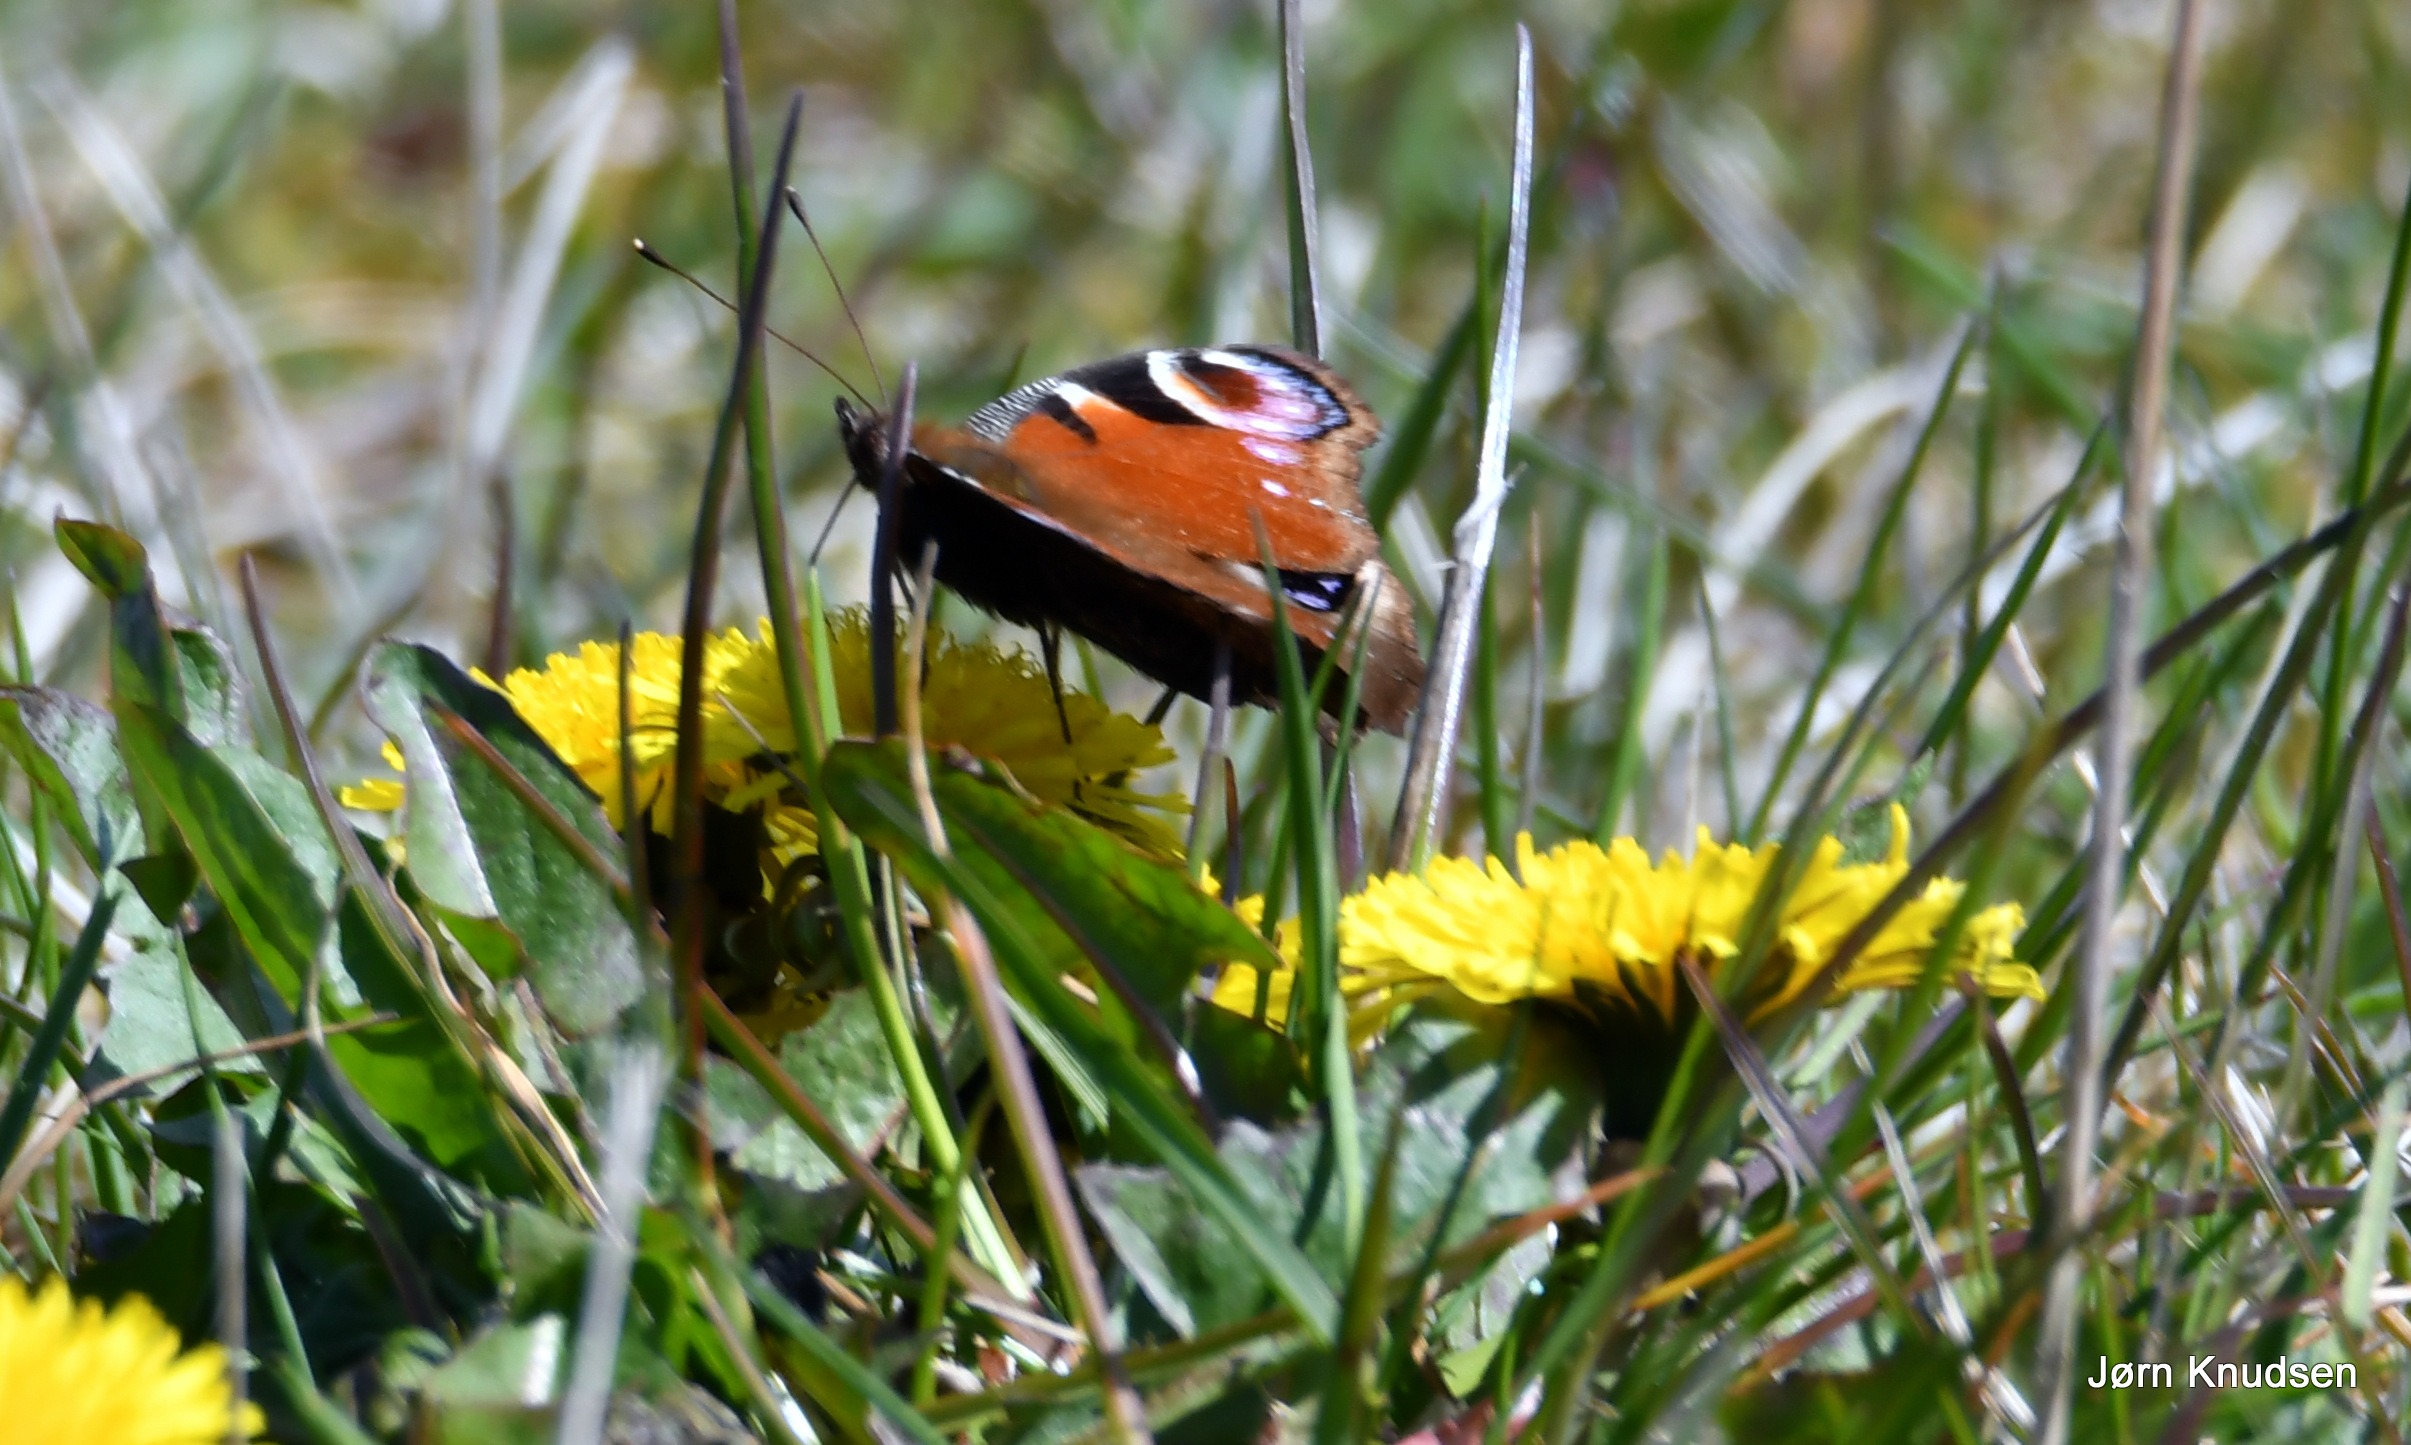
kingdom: Animalia
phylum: Arthropoda
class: Insecta
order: Lepidoptera
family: Nymphalidae
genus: Aglais
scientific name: Aglais io
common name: Dagpåfugleøje
